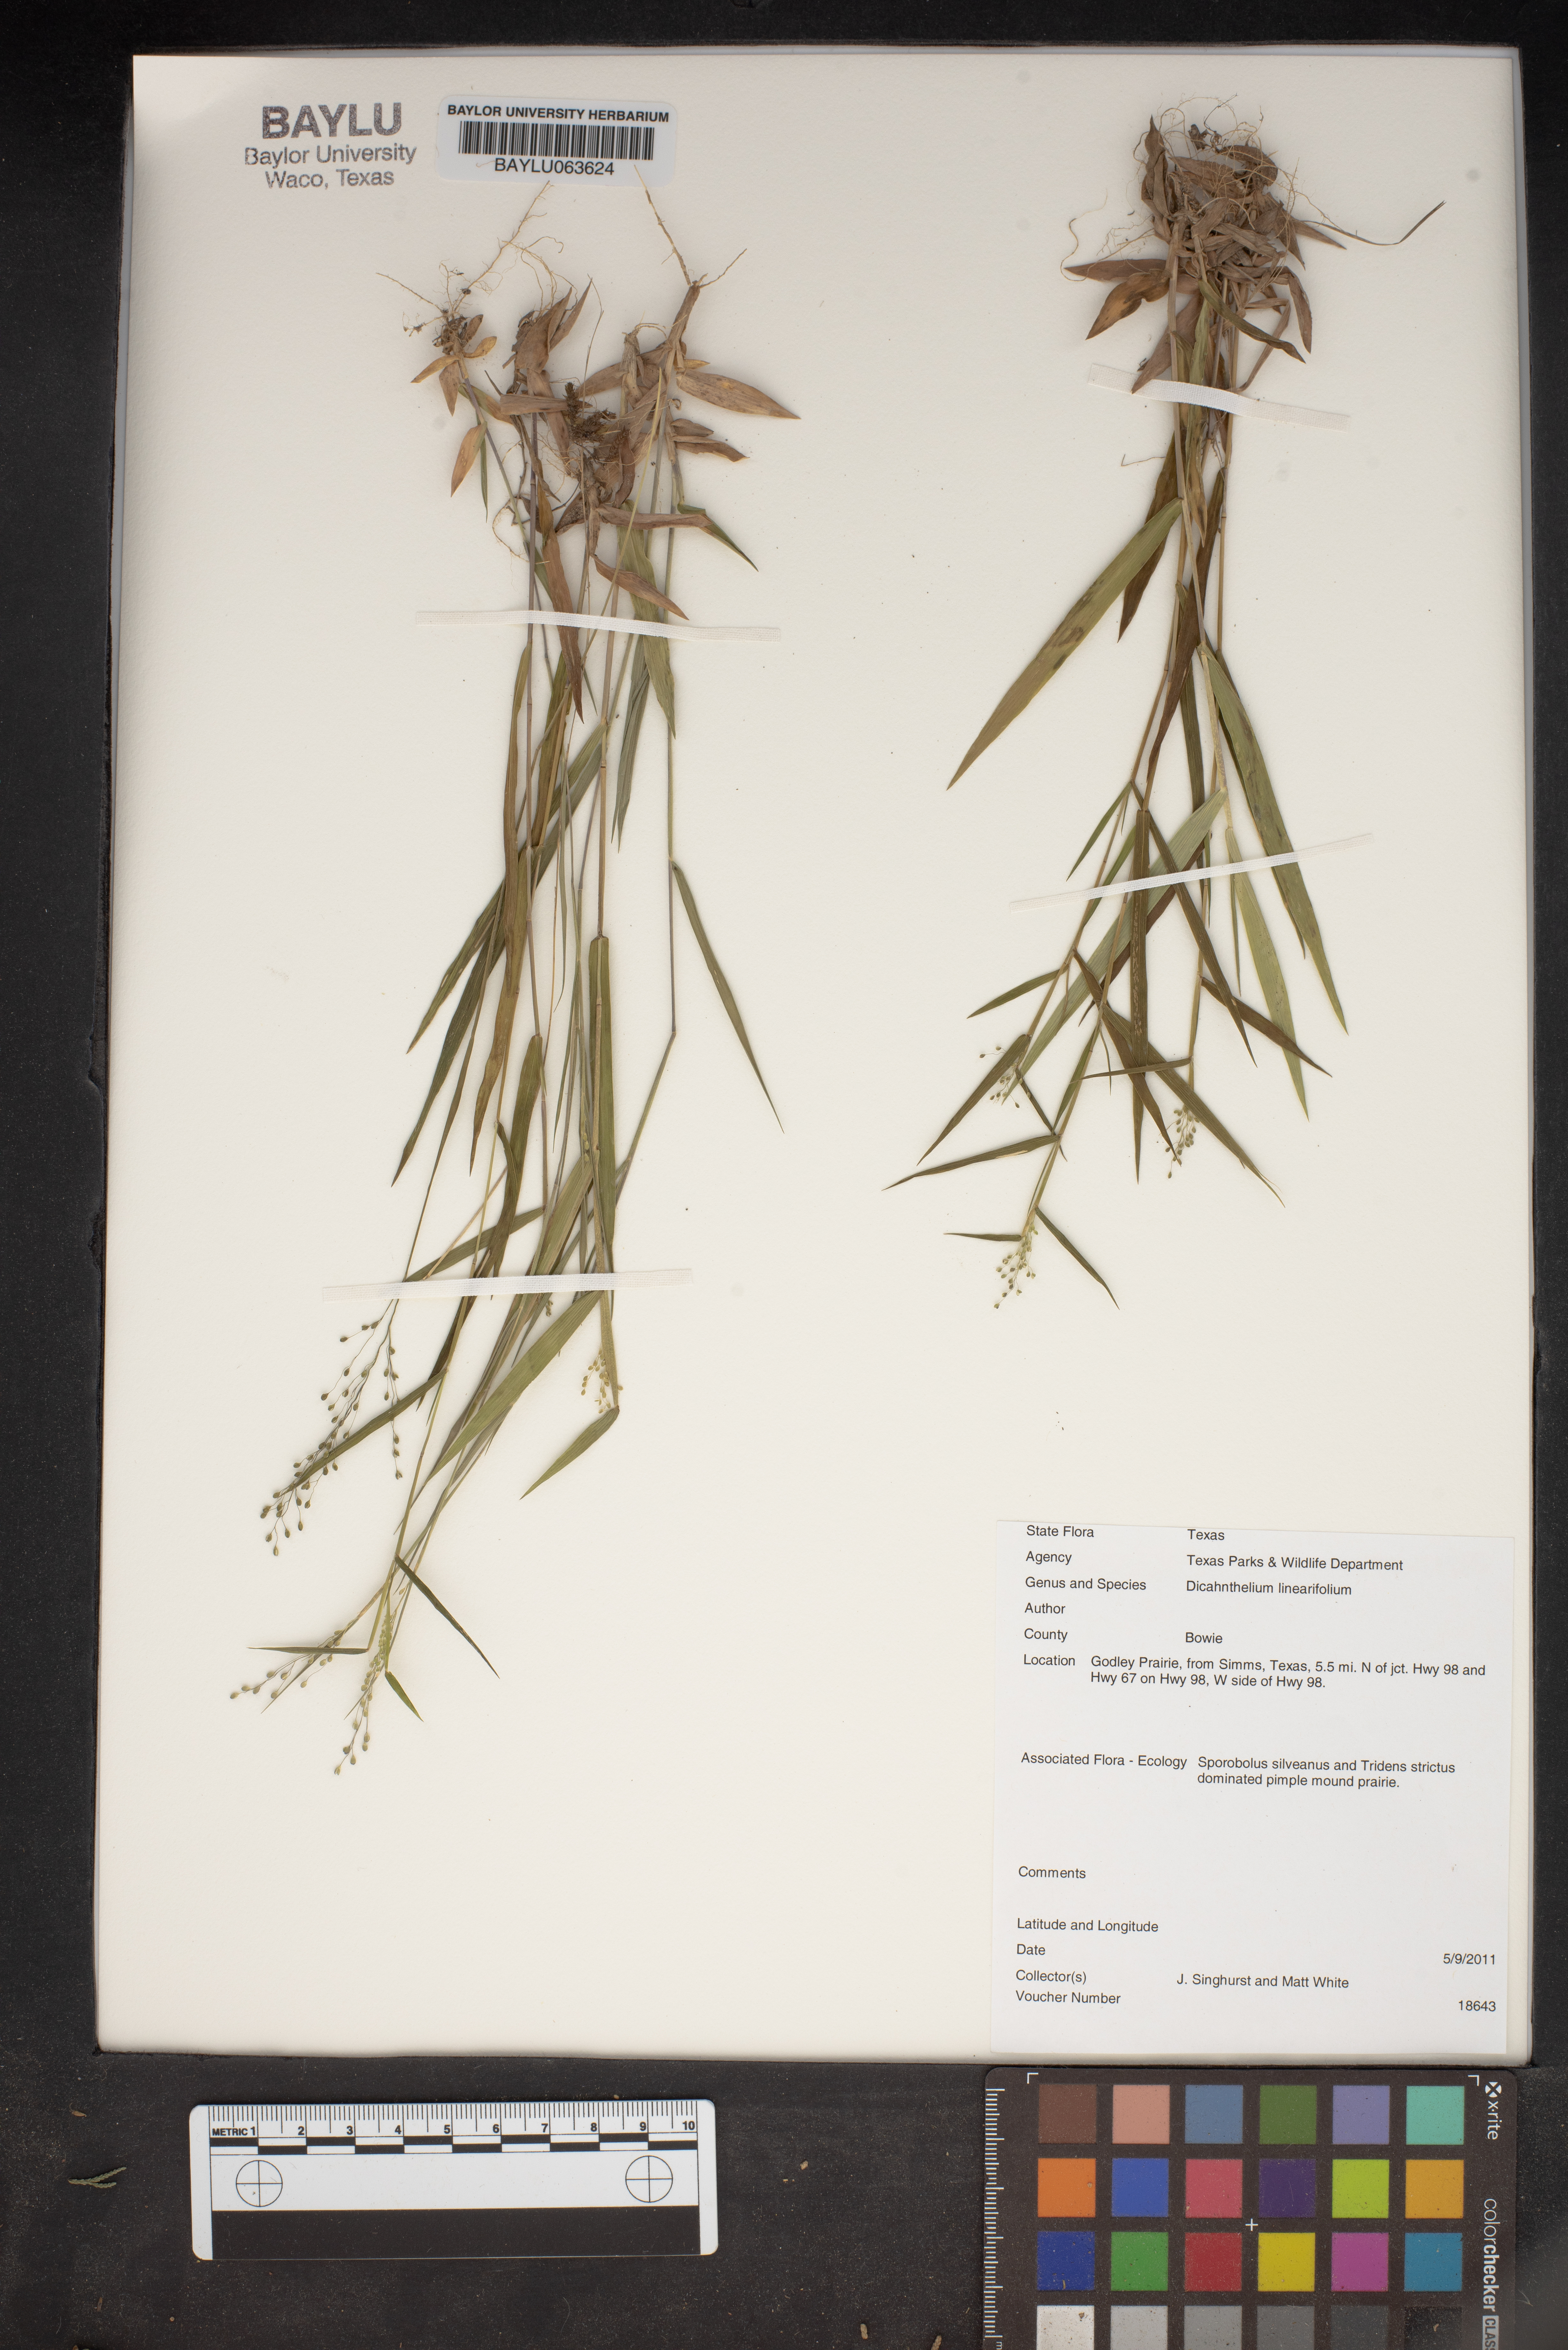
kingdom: Plantae
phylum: Tracheophyta
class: Liliopsida
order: Poales
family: Poaceae
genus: Dichanthelium
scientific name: Dichanthelium linearifolium
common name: Linear-leaved panicgrass
